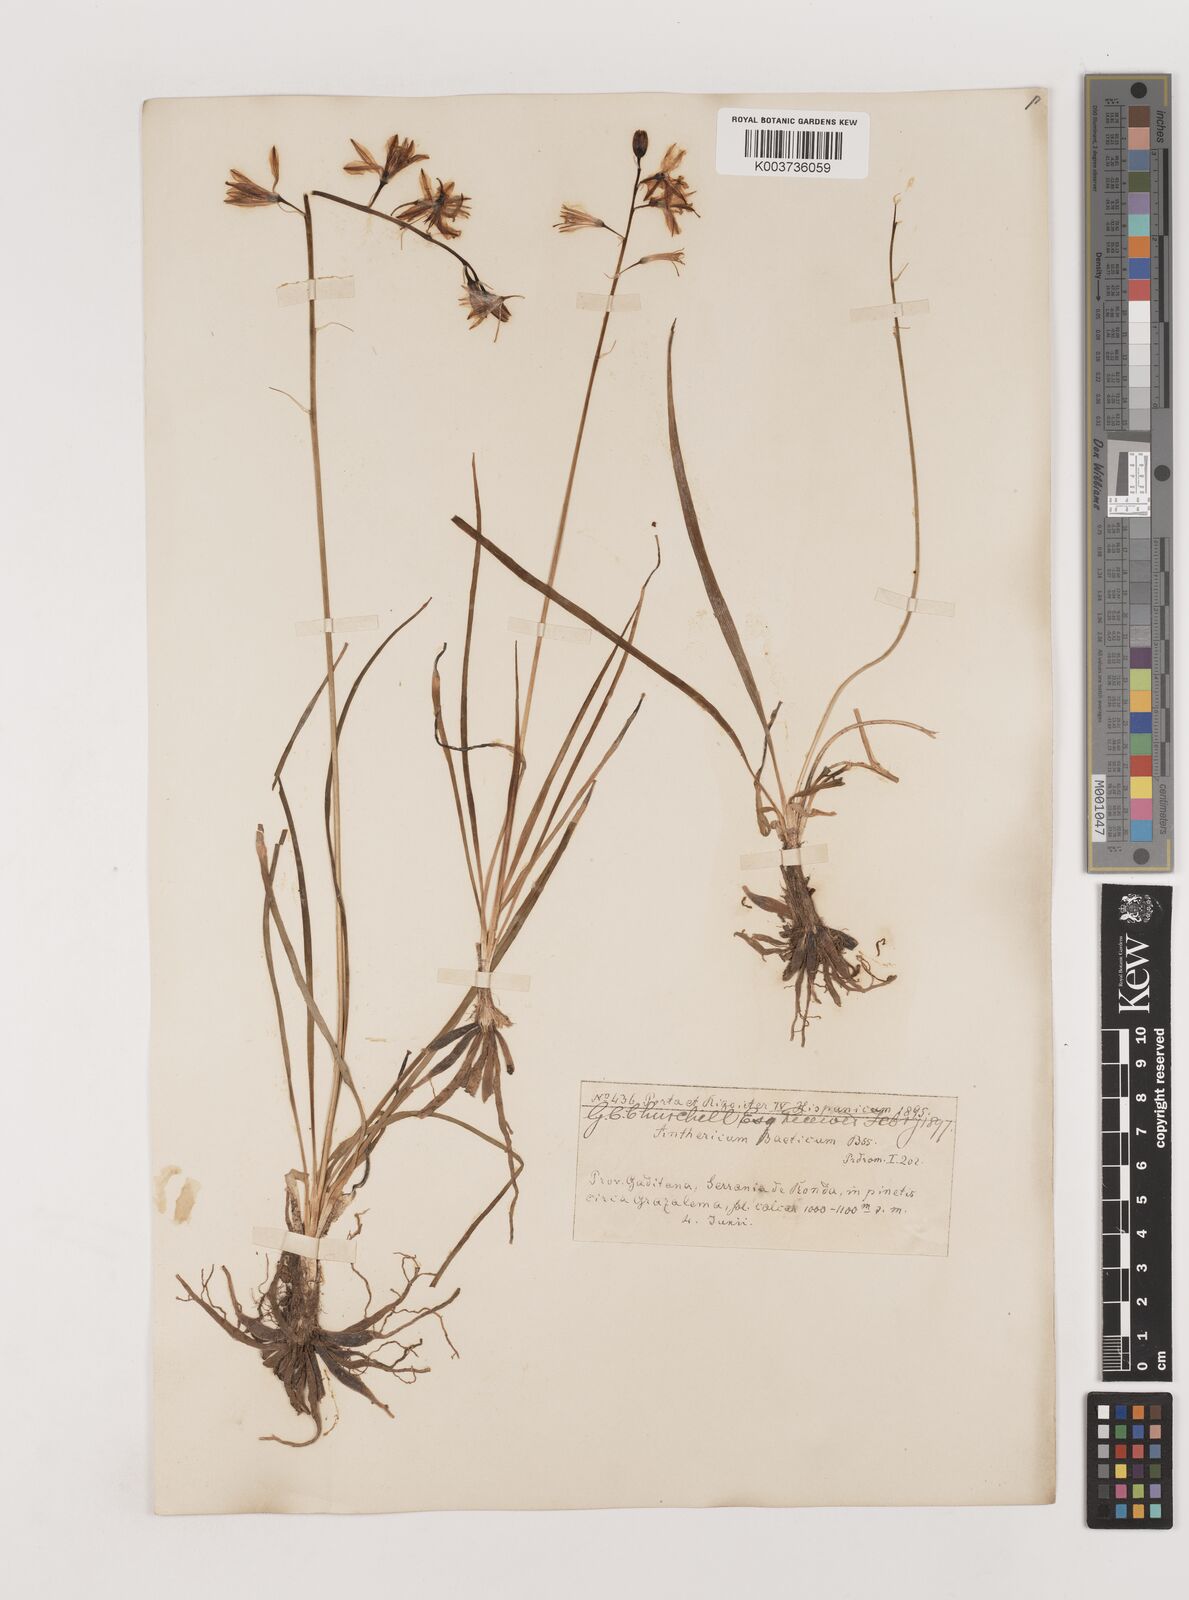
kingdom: Plantae
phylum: Tracheophyta
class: Liliopsida
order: Asparagales
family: Asparagaceae
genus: Anthericum
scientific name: Anthericum liliago
